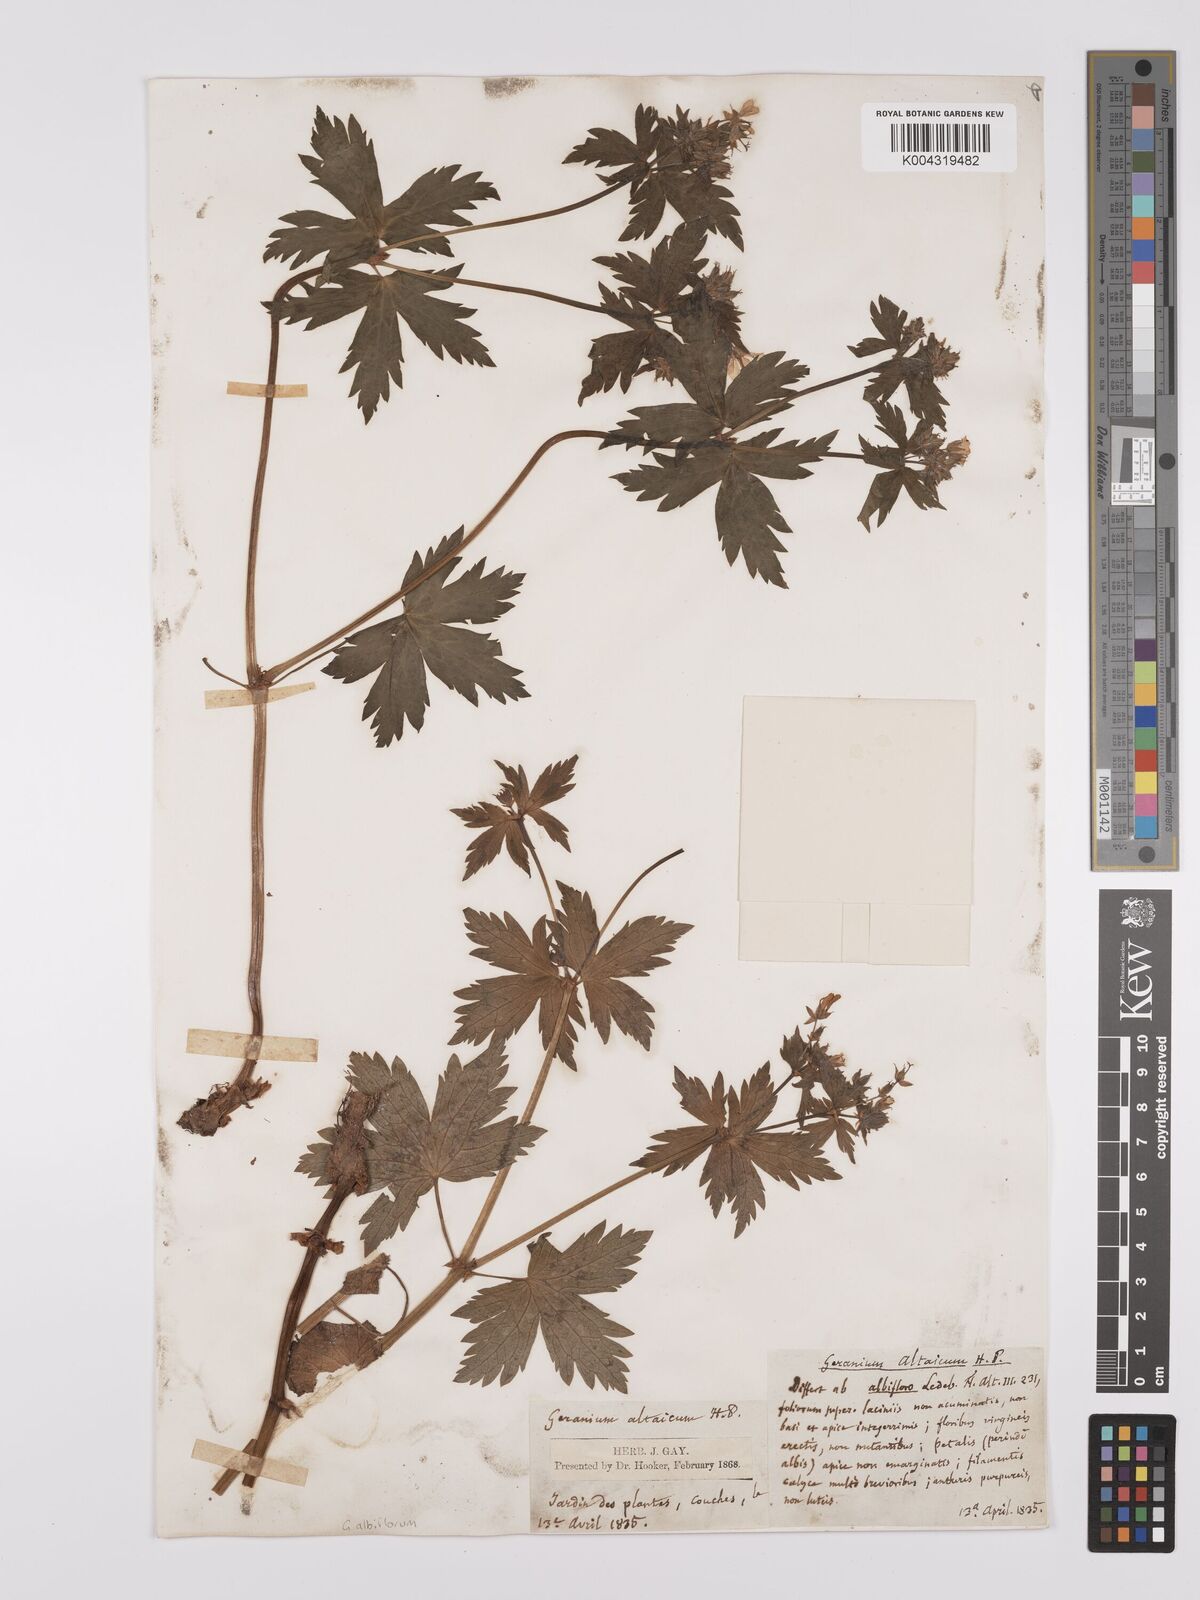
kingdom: Plantae
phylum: Tracheophyta
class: Magnoliopsida
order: Geraniales
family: Geraniaceae
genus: Geranium
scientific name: Geranium
